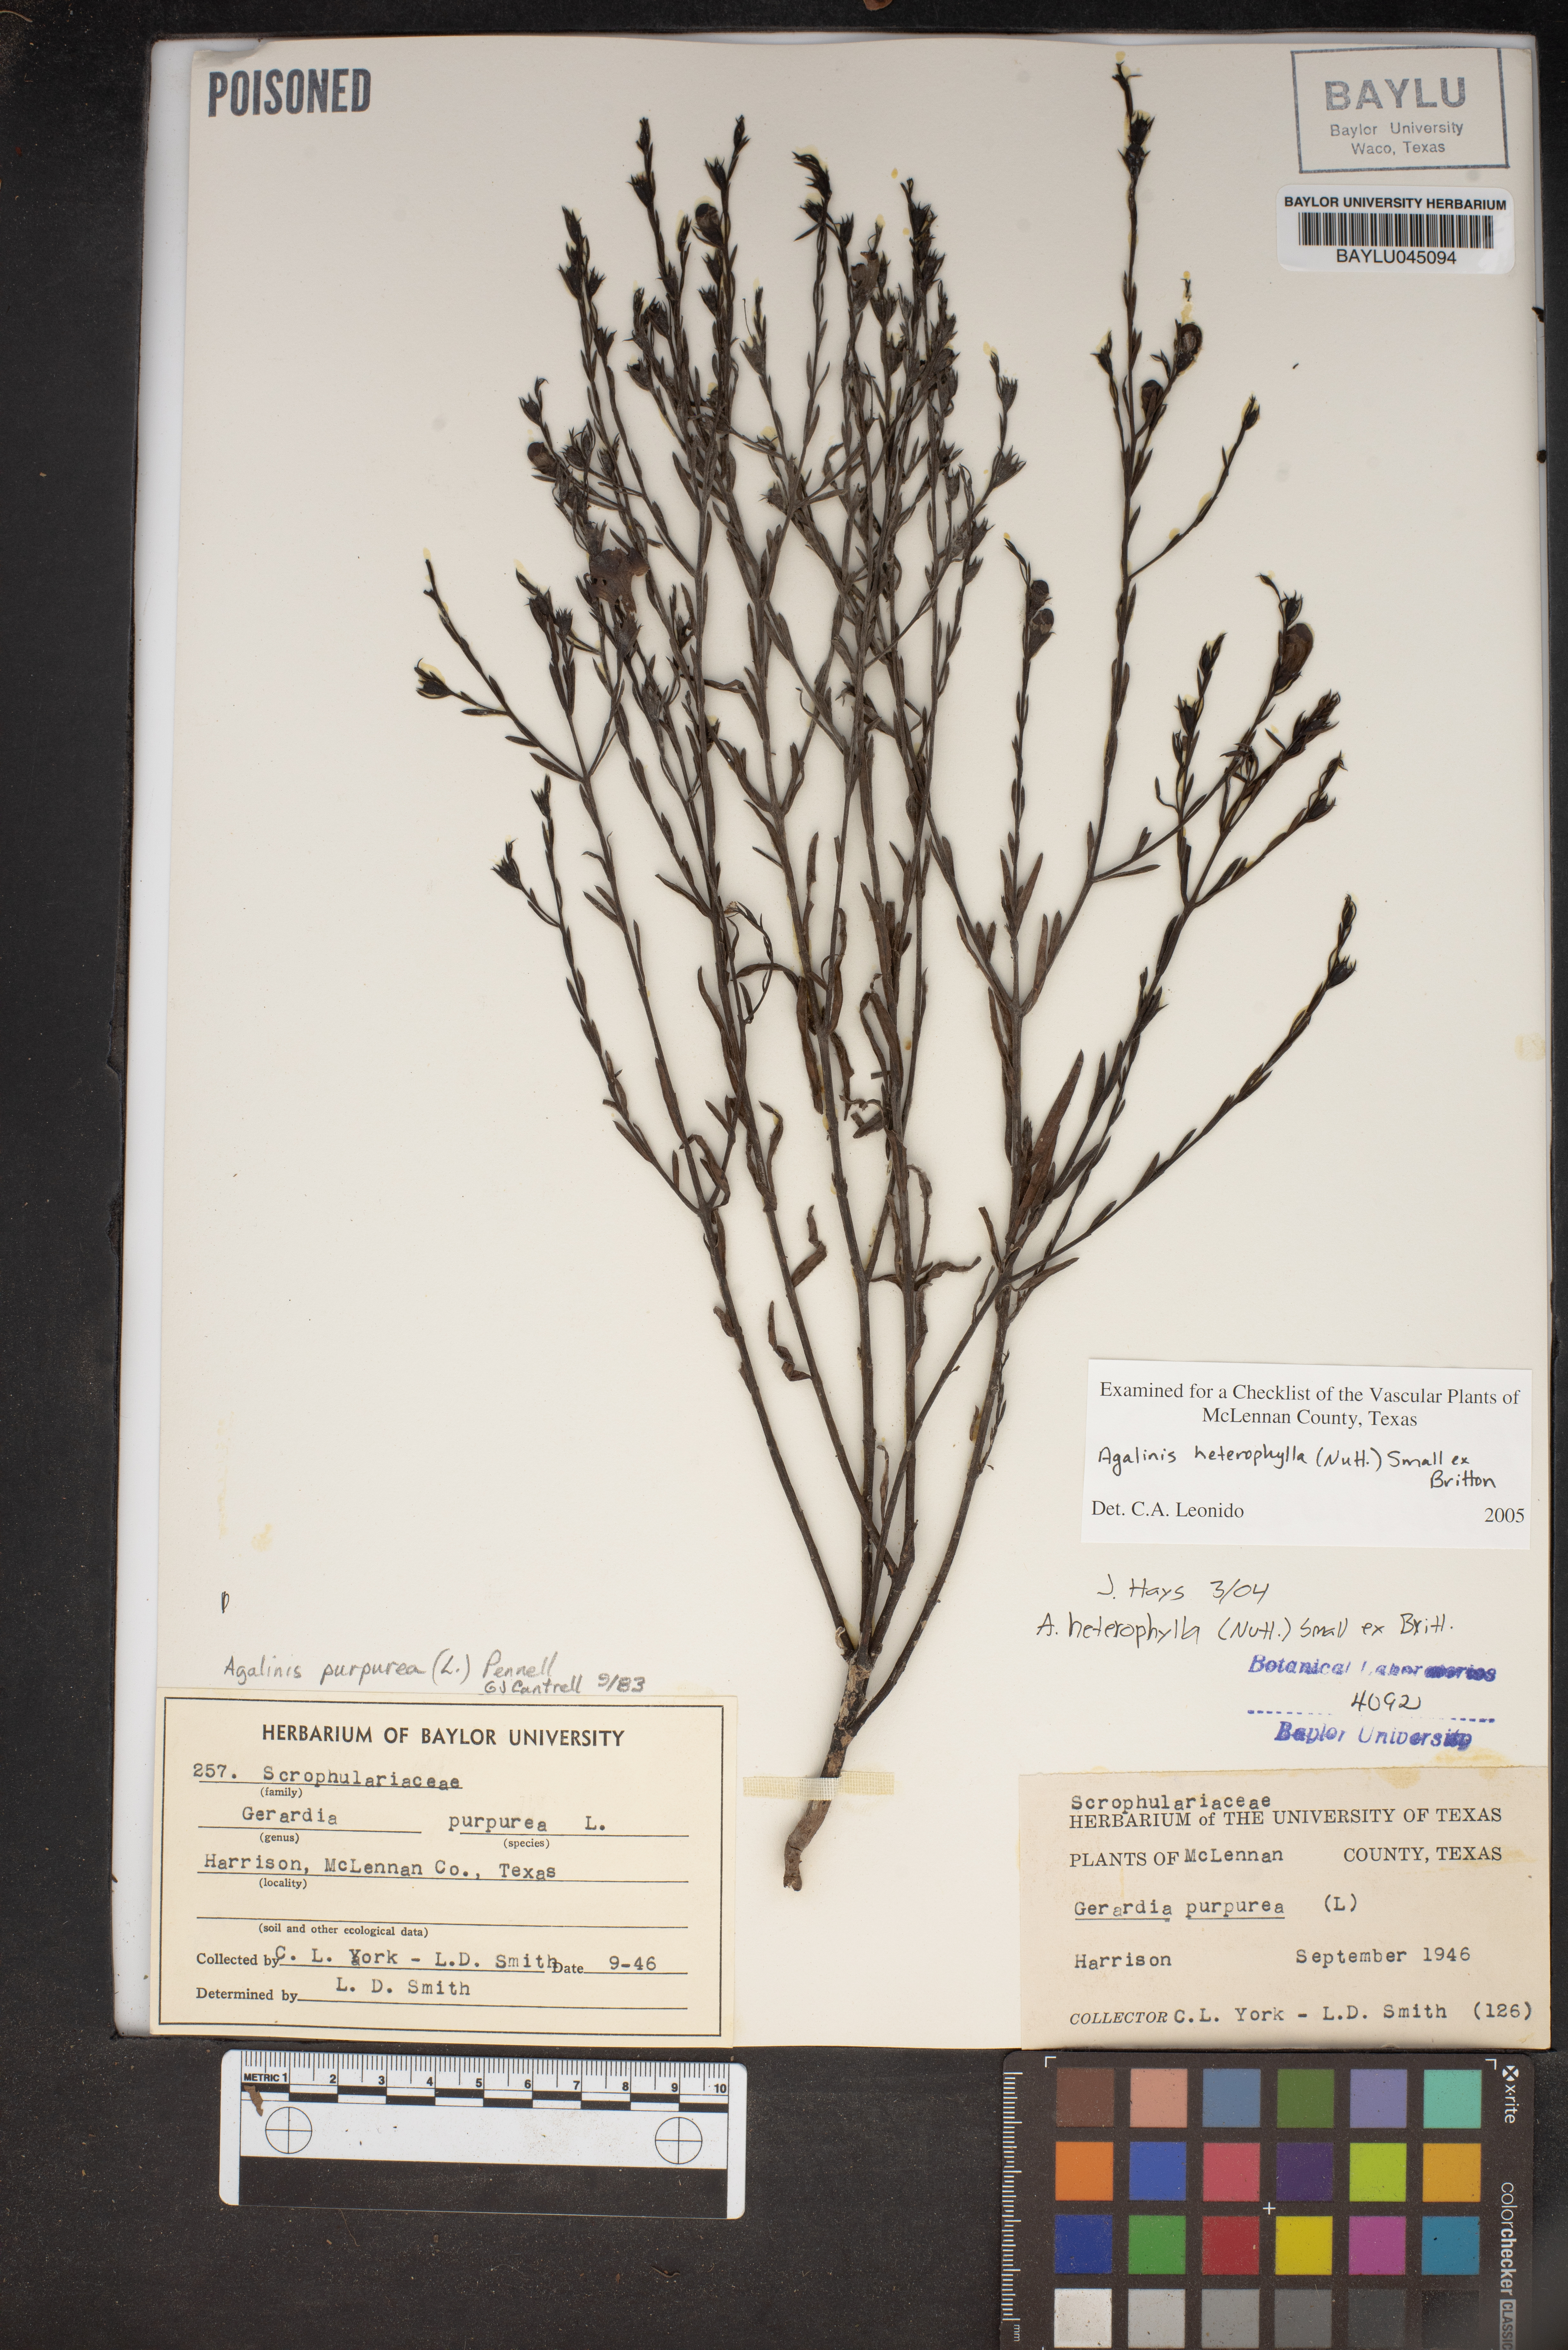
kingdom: Plantae
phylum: Tracheophyta
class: Magnoliopsida
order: Lamiales
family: Orobanchaceae
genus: Agalinis
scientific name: Agalinis heterophylla
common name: Prairie agalinis
